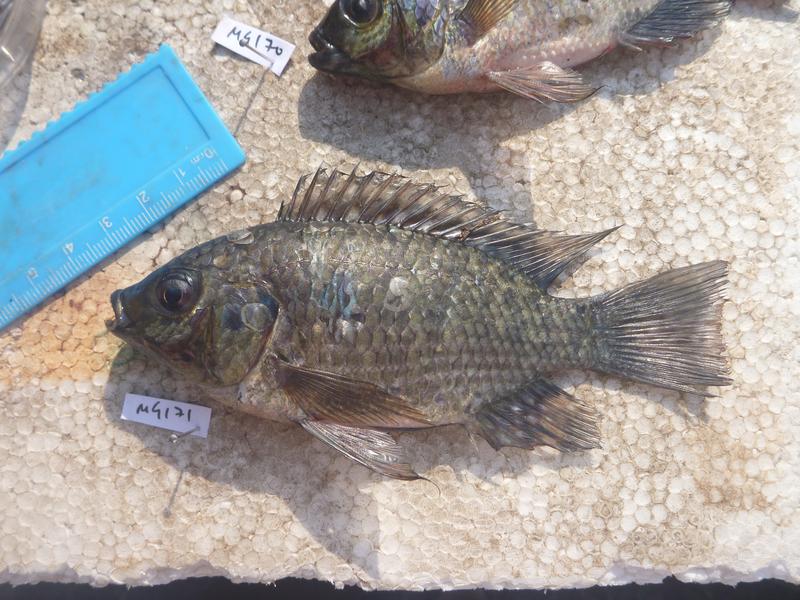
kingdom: Animalia
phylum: Chordata
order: Perciformes
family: Cichlidae
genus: Oreochromis
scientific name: Oreochromis leucostictus
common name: Blue spotted tilapia
